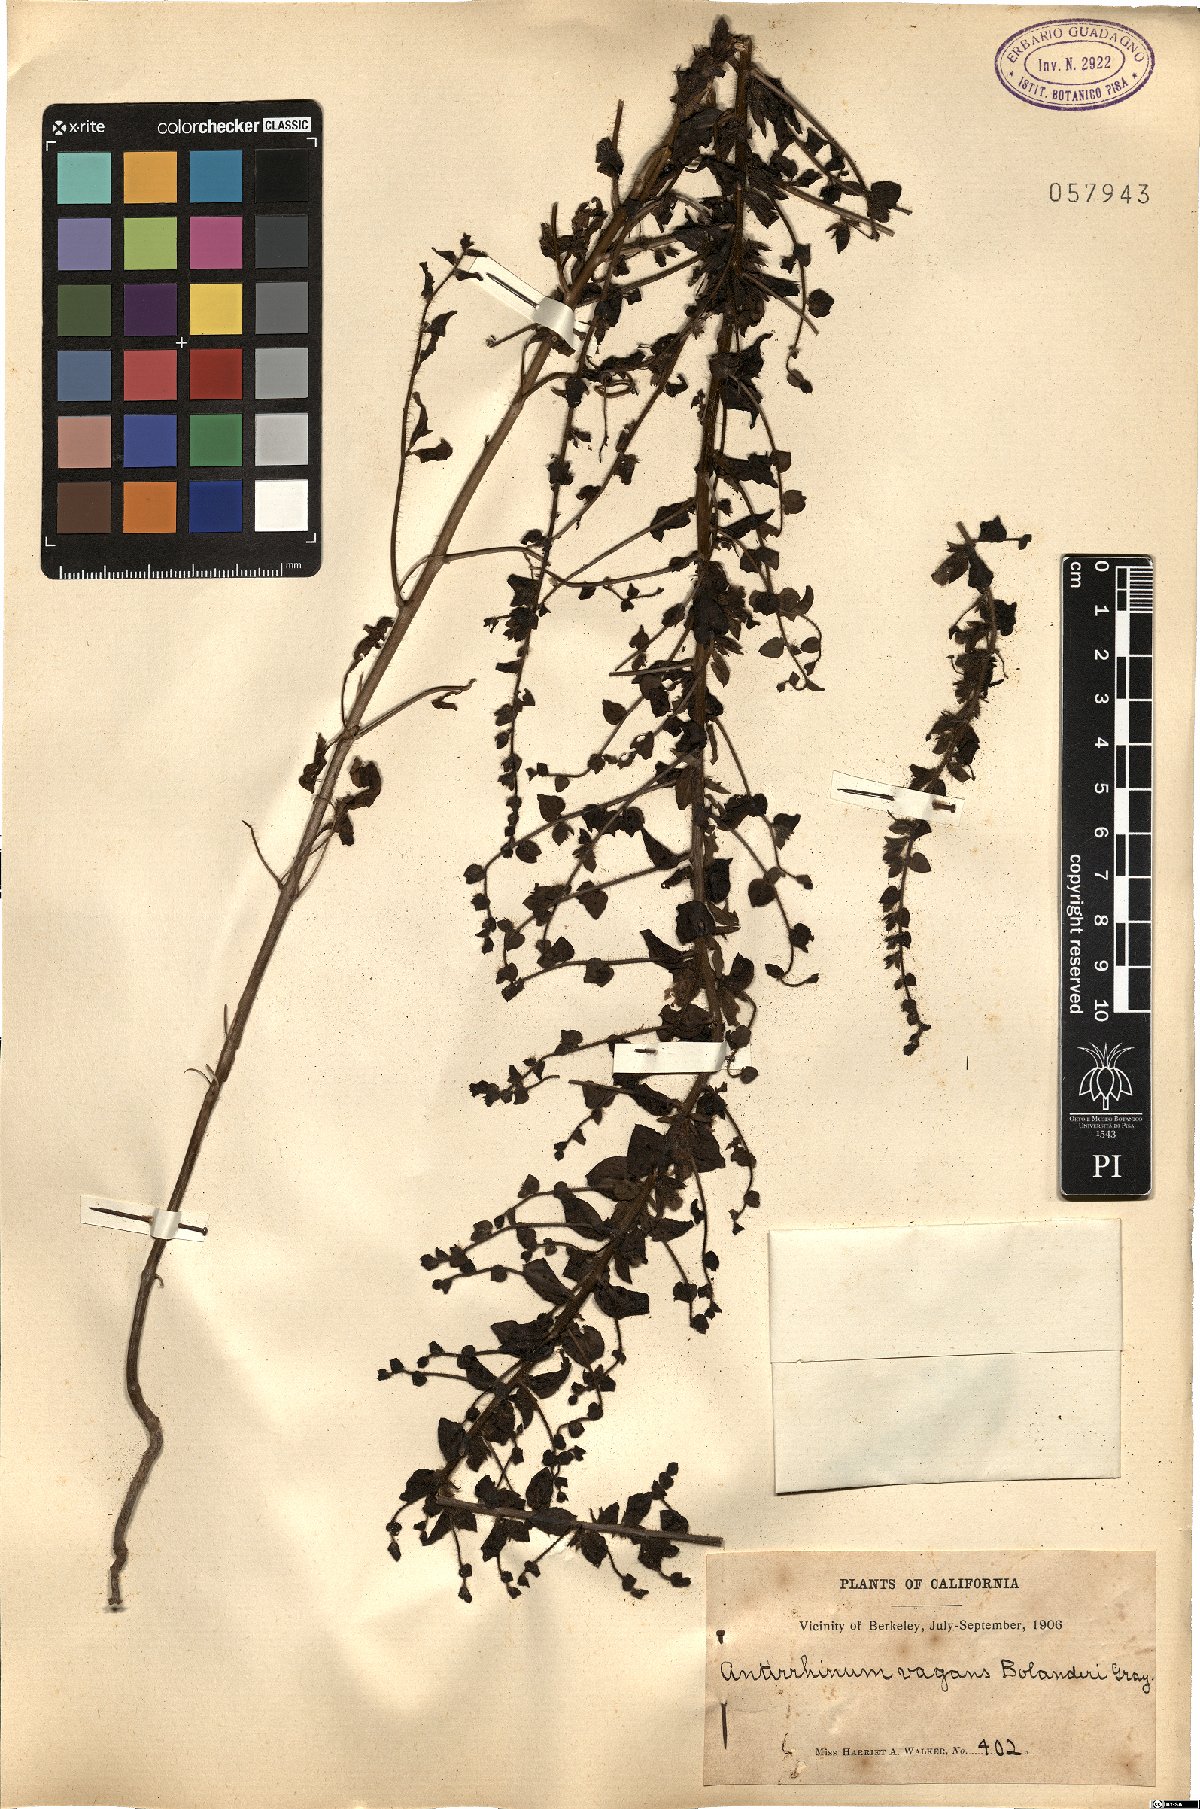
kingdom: Plantae
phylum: Tracheophyta
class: Magnoliopsida
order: Lamiales
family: Scrophulariaceae
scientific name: Scrophulariaceae
